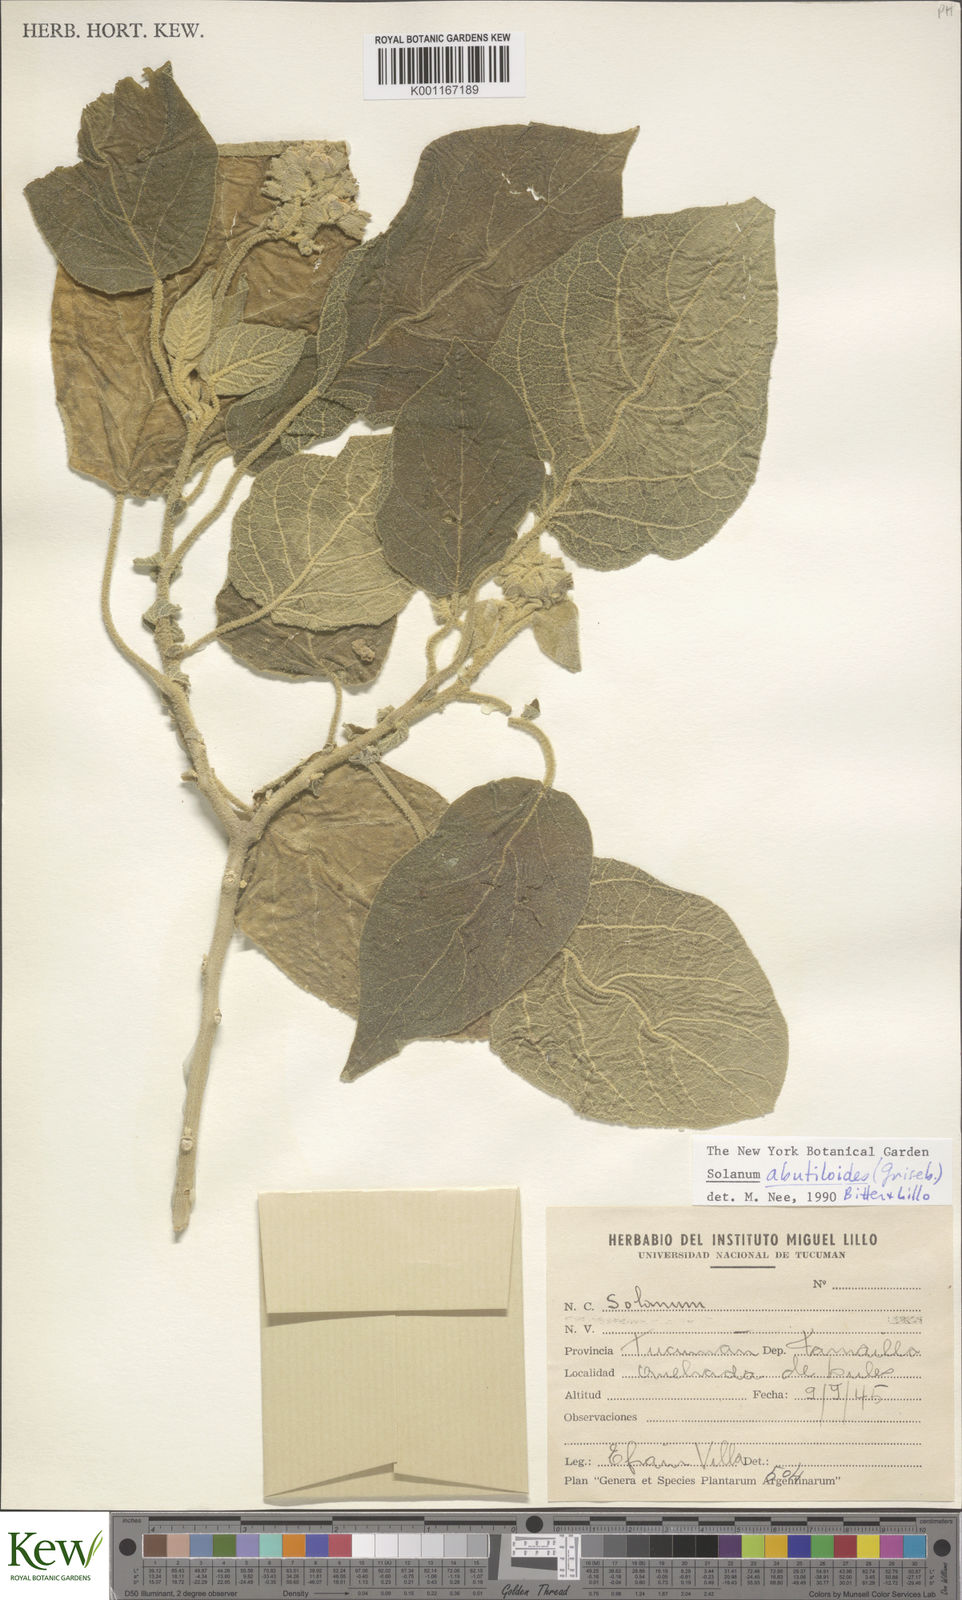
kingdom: Plantae
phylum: Tracheophyta
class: Magnoliopsida
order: Solanales
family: Solanaceae
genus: Solanum
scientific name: Solanum abutiloides
